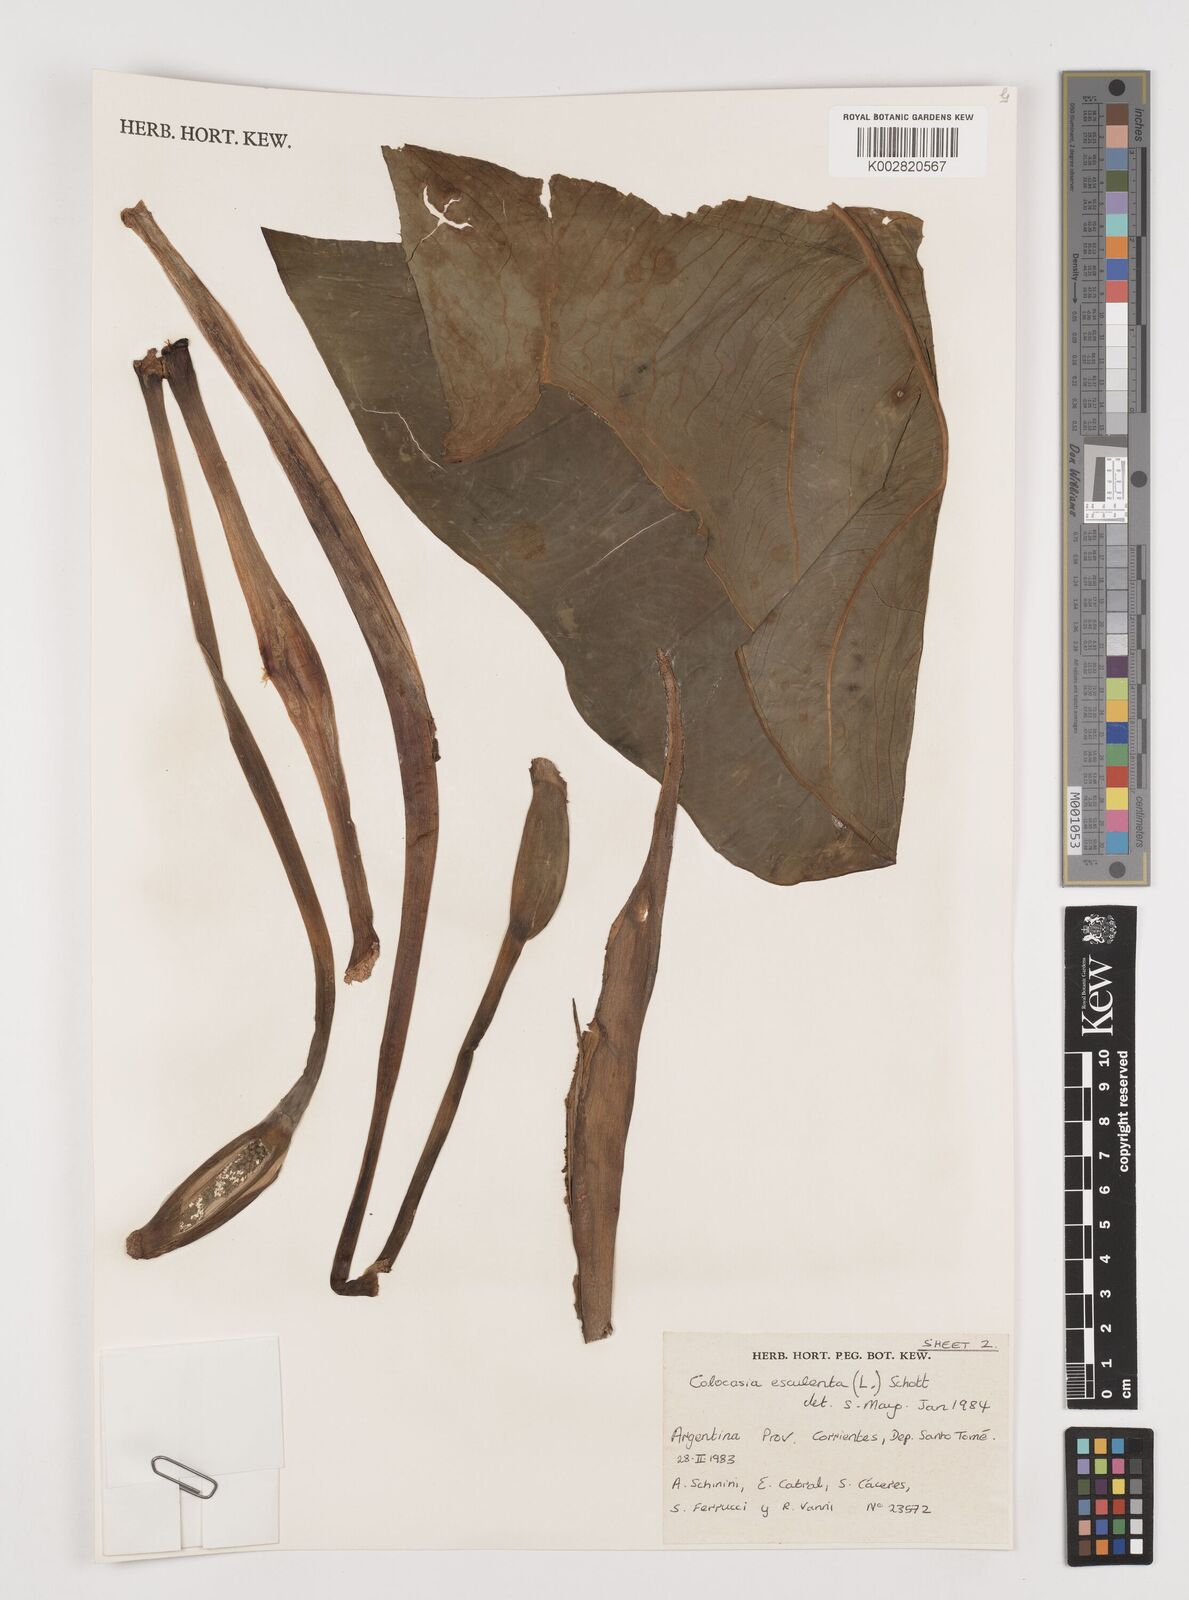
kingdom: Plantae
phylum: Tracheophyta
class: Liliopsida
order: Alismatales
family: Araceae
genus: Colocasia
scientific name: Colocasia esculenta
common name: Taro
